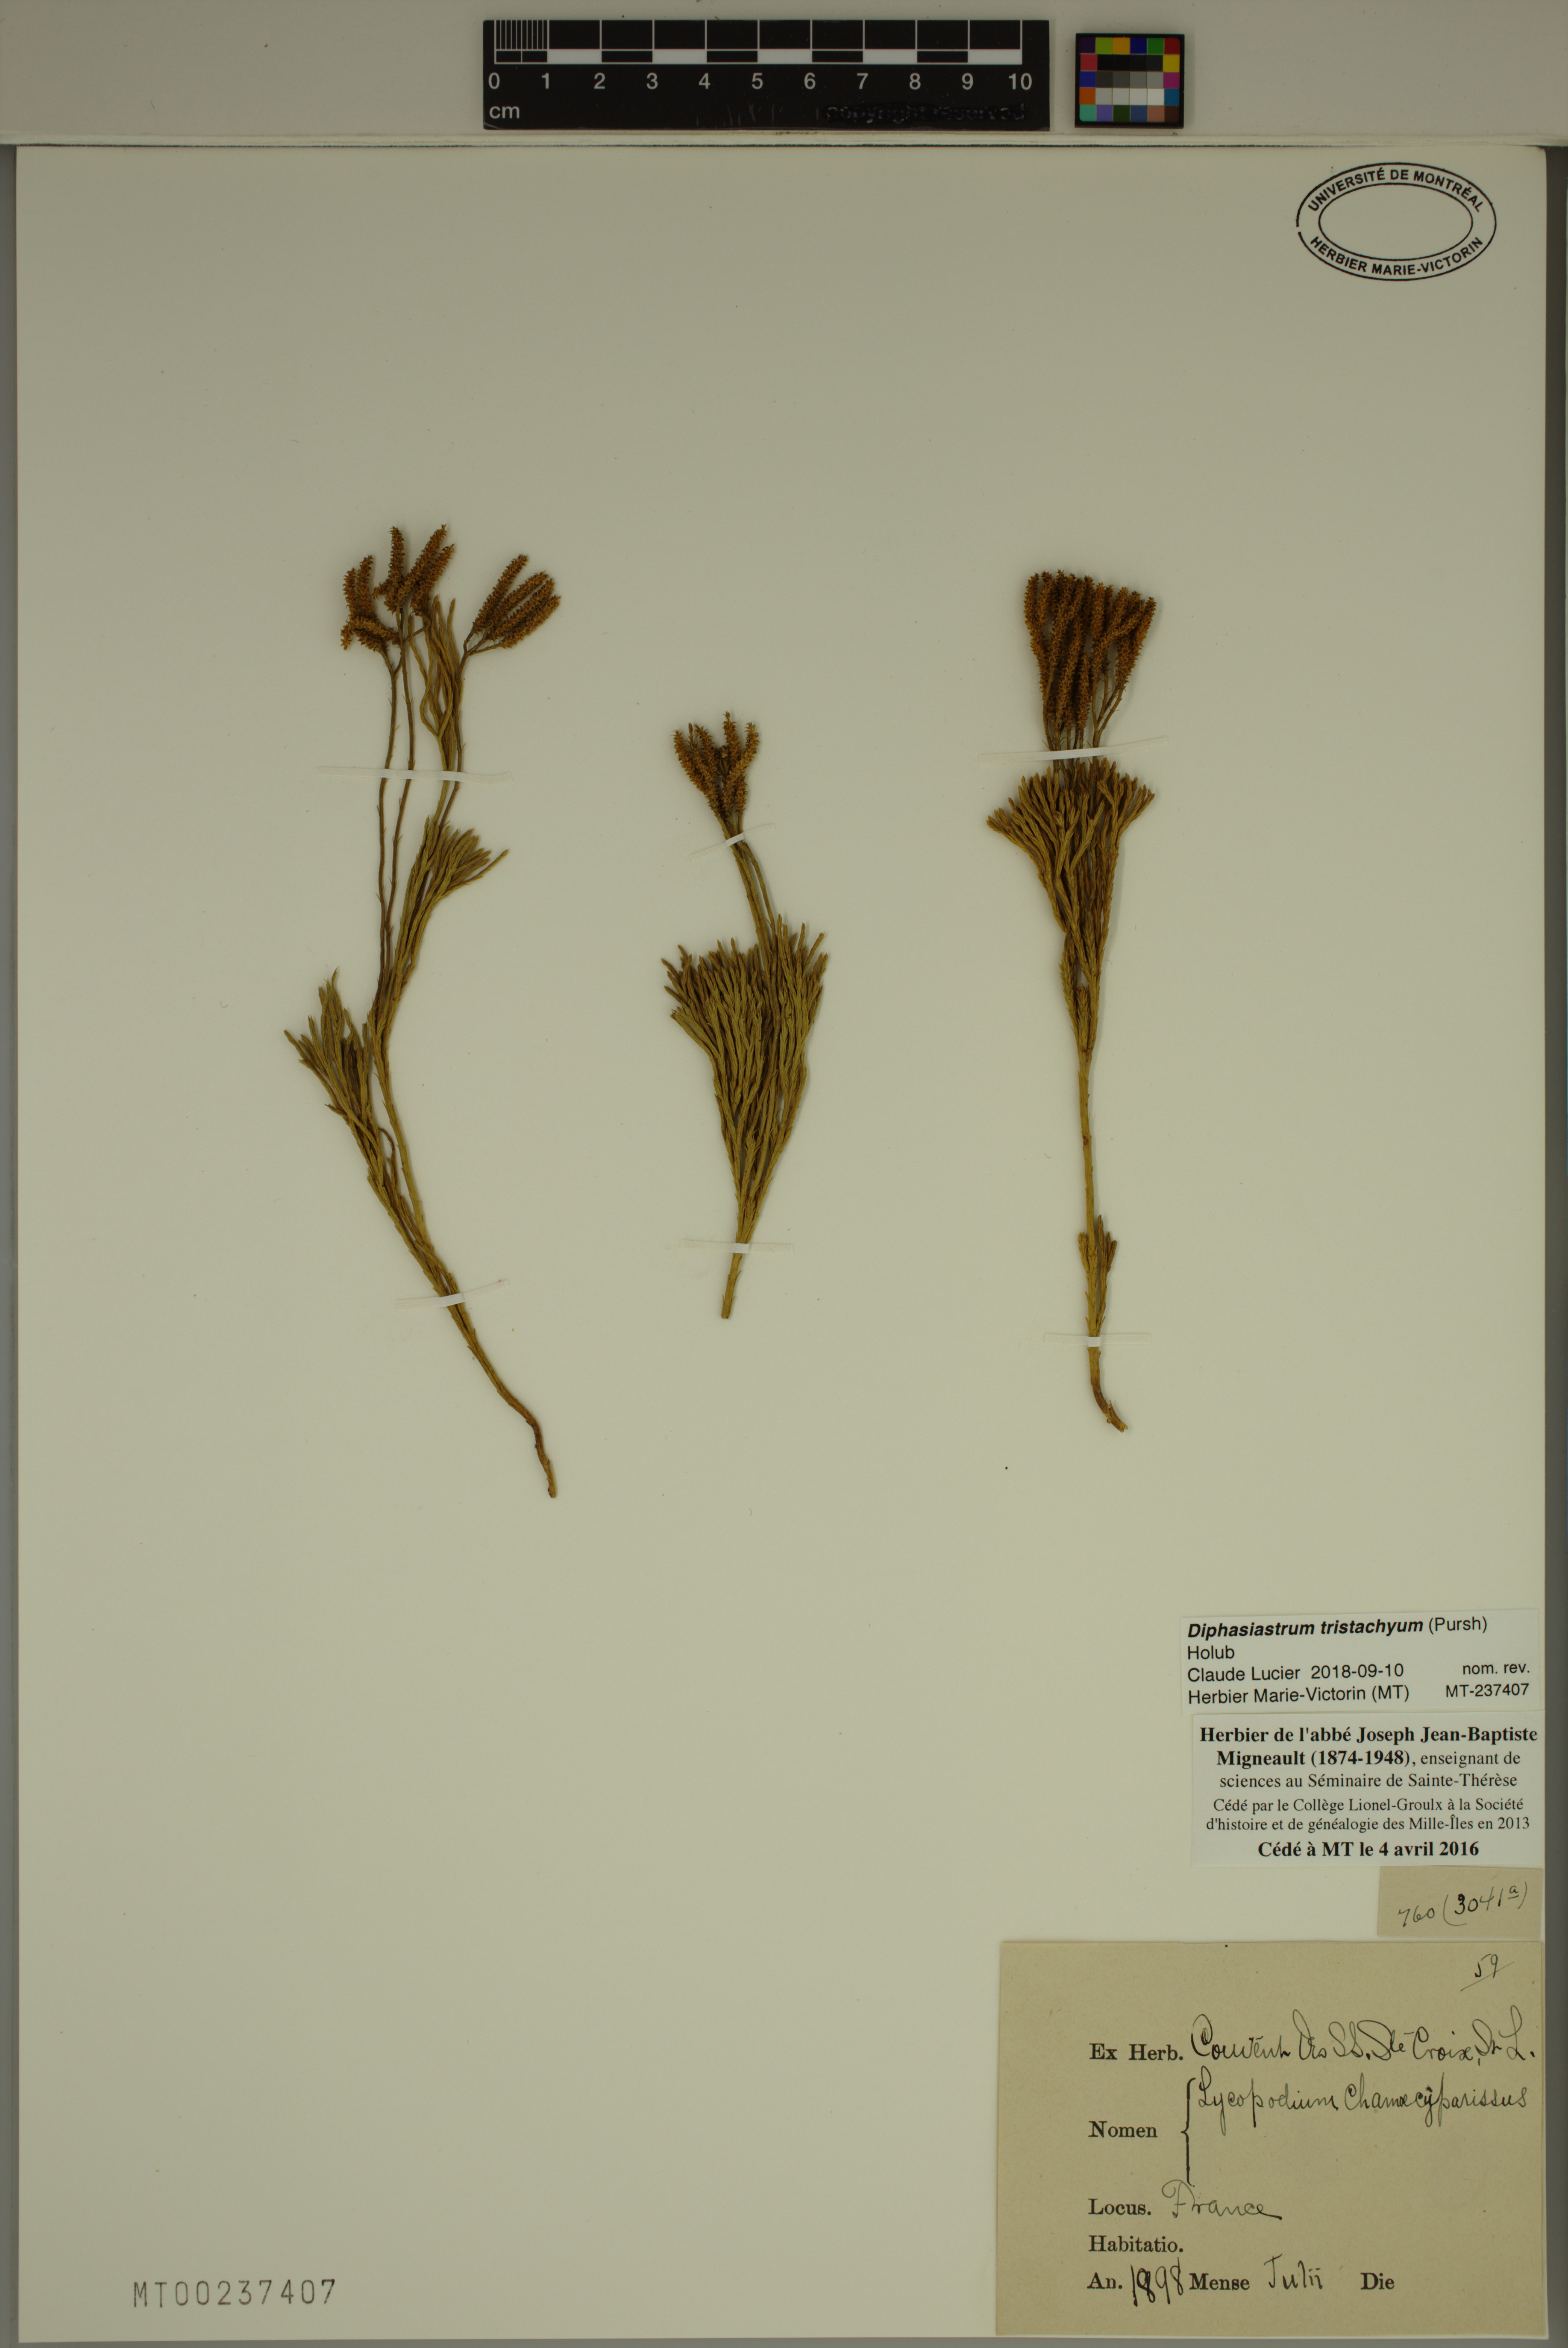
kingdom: Plantae
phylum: Tracheophyta
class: Lycopodiopsida
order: Lycopodiales
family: Lycopodiaceae
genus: Diphasiastrum
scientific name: Diphasiastrum tristachyum
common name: Blue ground-cedar
